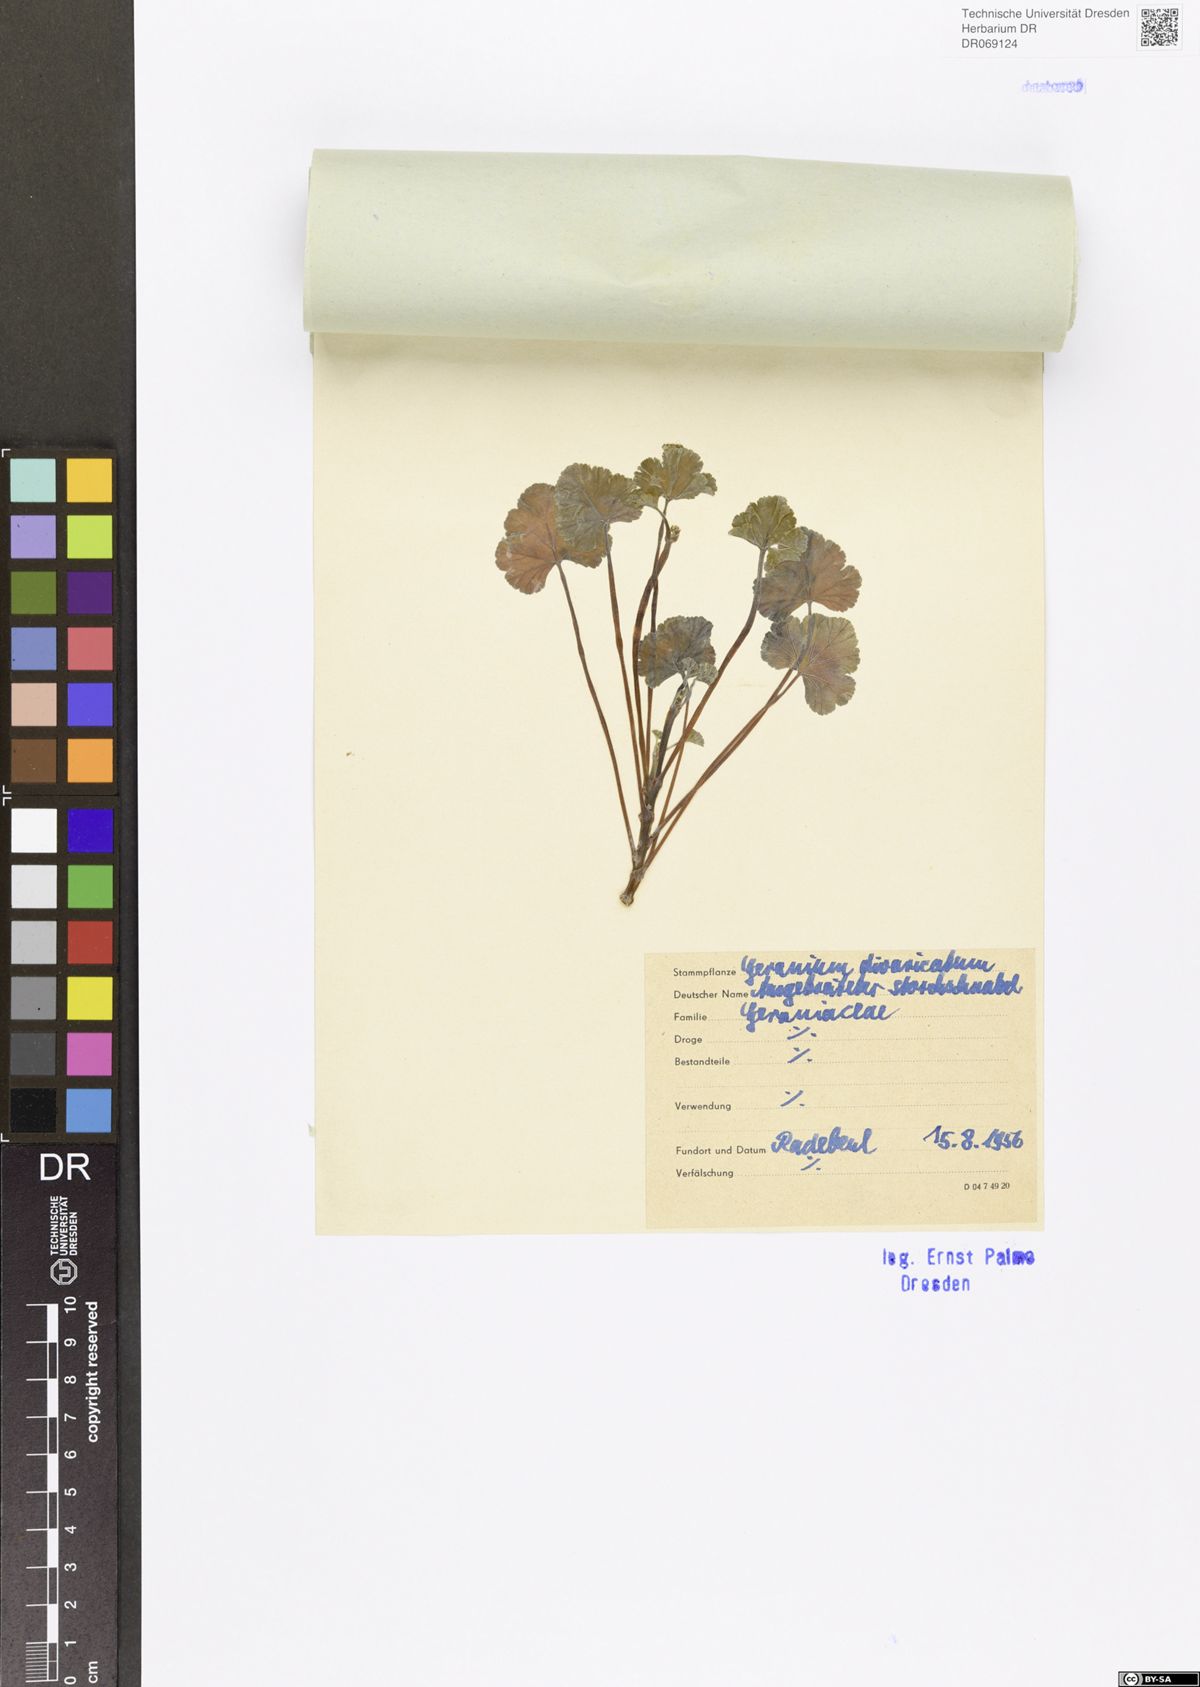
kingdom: Plantae
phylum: Tracheophyta
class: Magnoliopsida
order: Geraniales
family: Geraniaceae
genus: Geranium
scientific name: Geranium divaricatum
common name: Spreading crane's-bill
